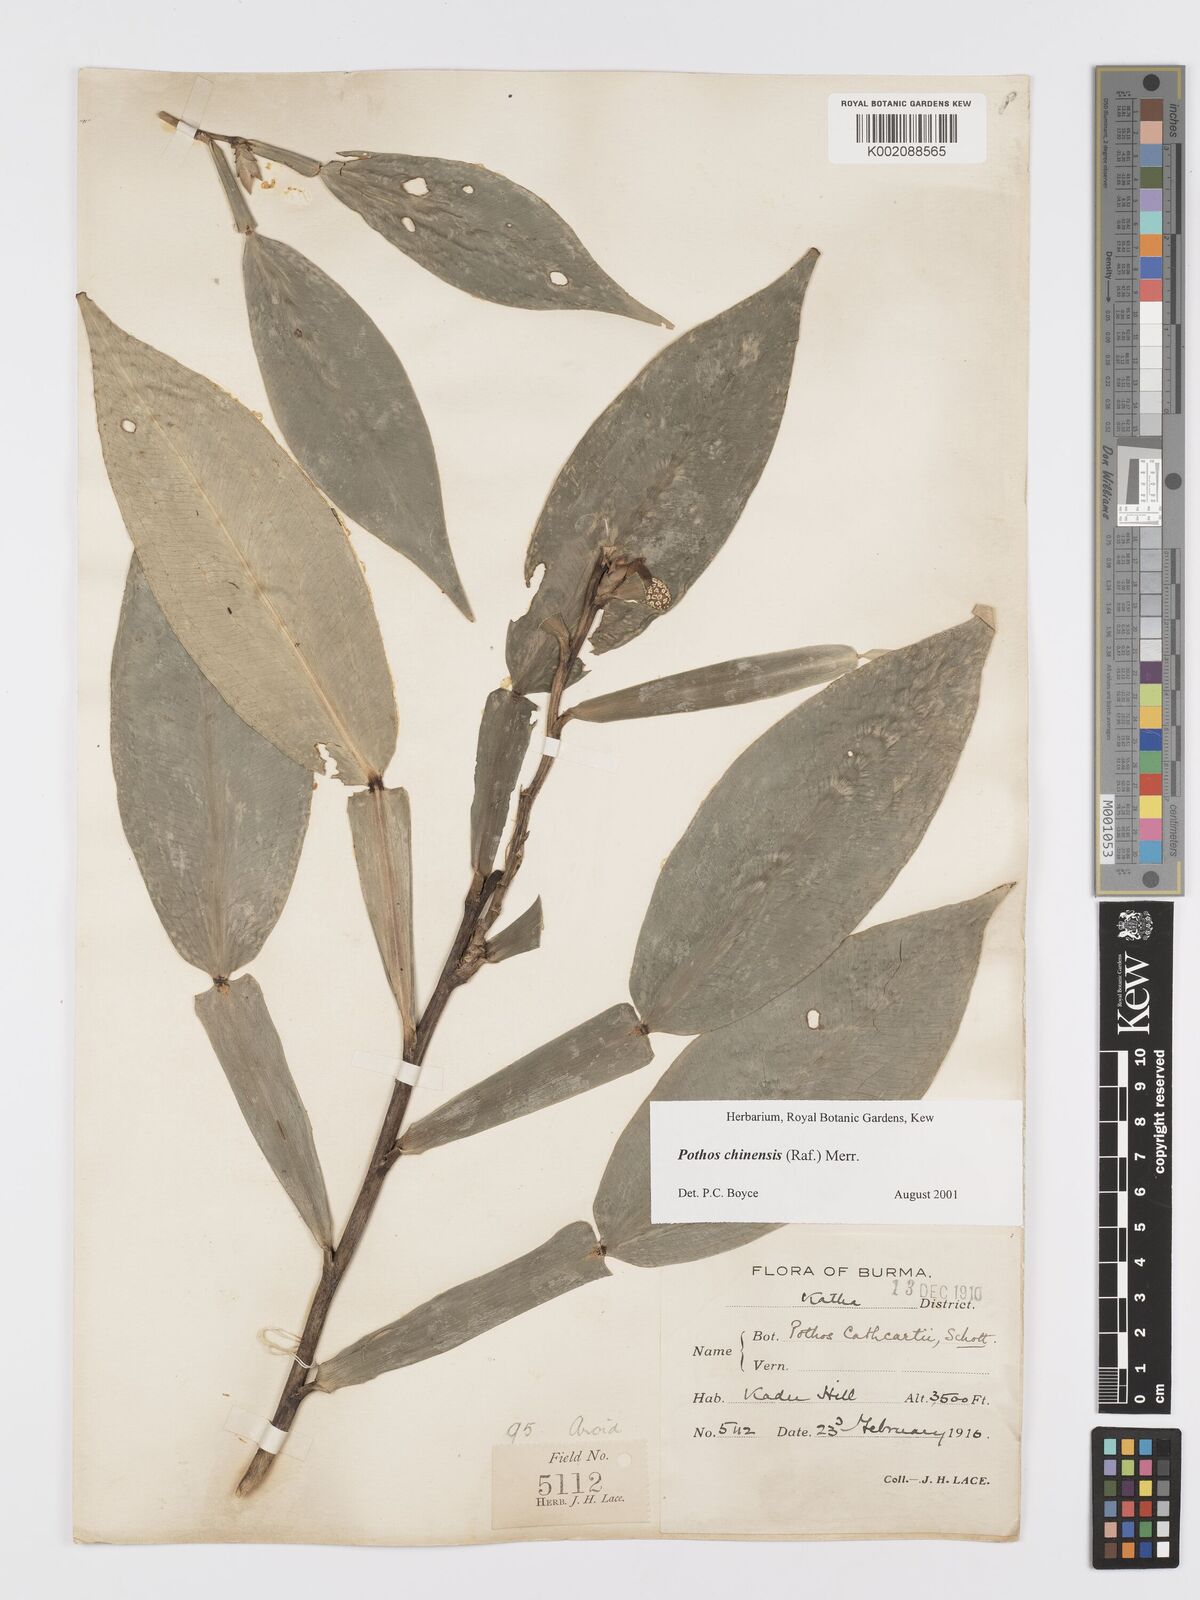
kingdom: Plantae
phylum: Tracheophyta
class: Liliopsida
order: Alismatales
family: Araceae
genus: Pothos
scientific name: Pothos chinensis
